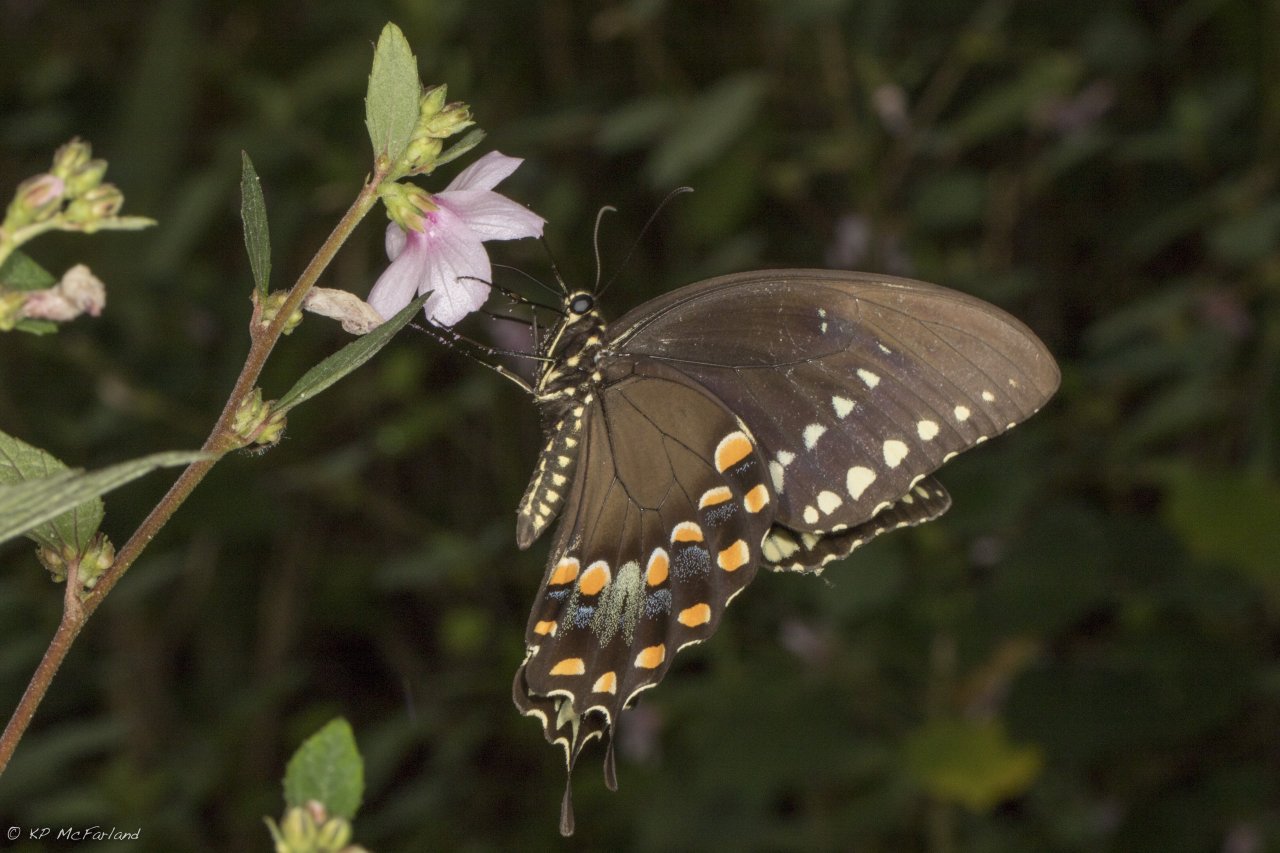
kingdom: Animalia
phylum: Arthropoda
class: Insecta
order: Lepidoptera
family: Papilionidae
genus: Pterourus
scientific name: Pterourus troilus
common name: Spicebush Swallowtail
